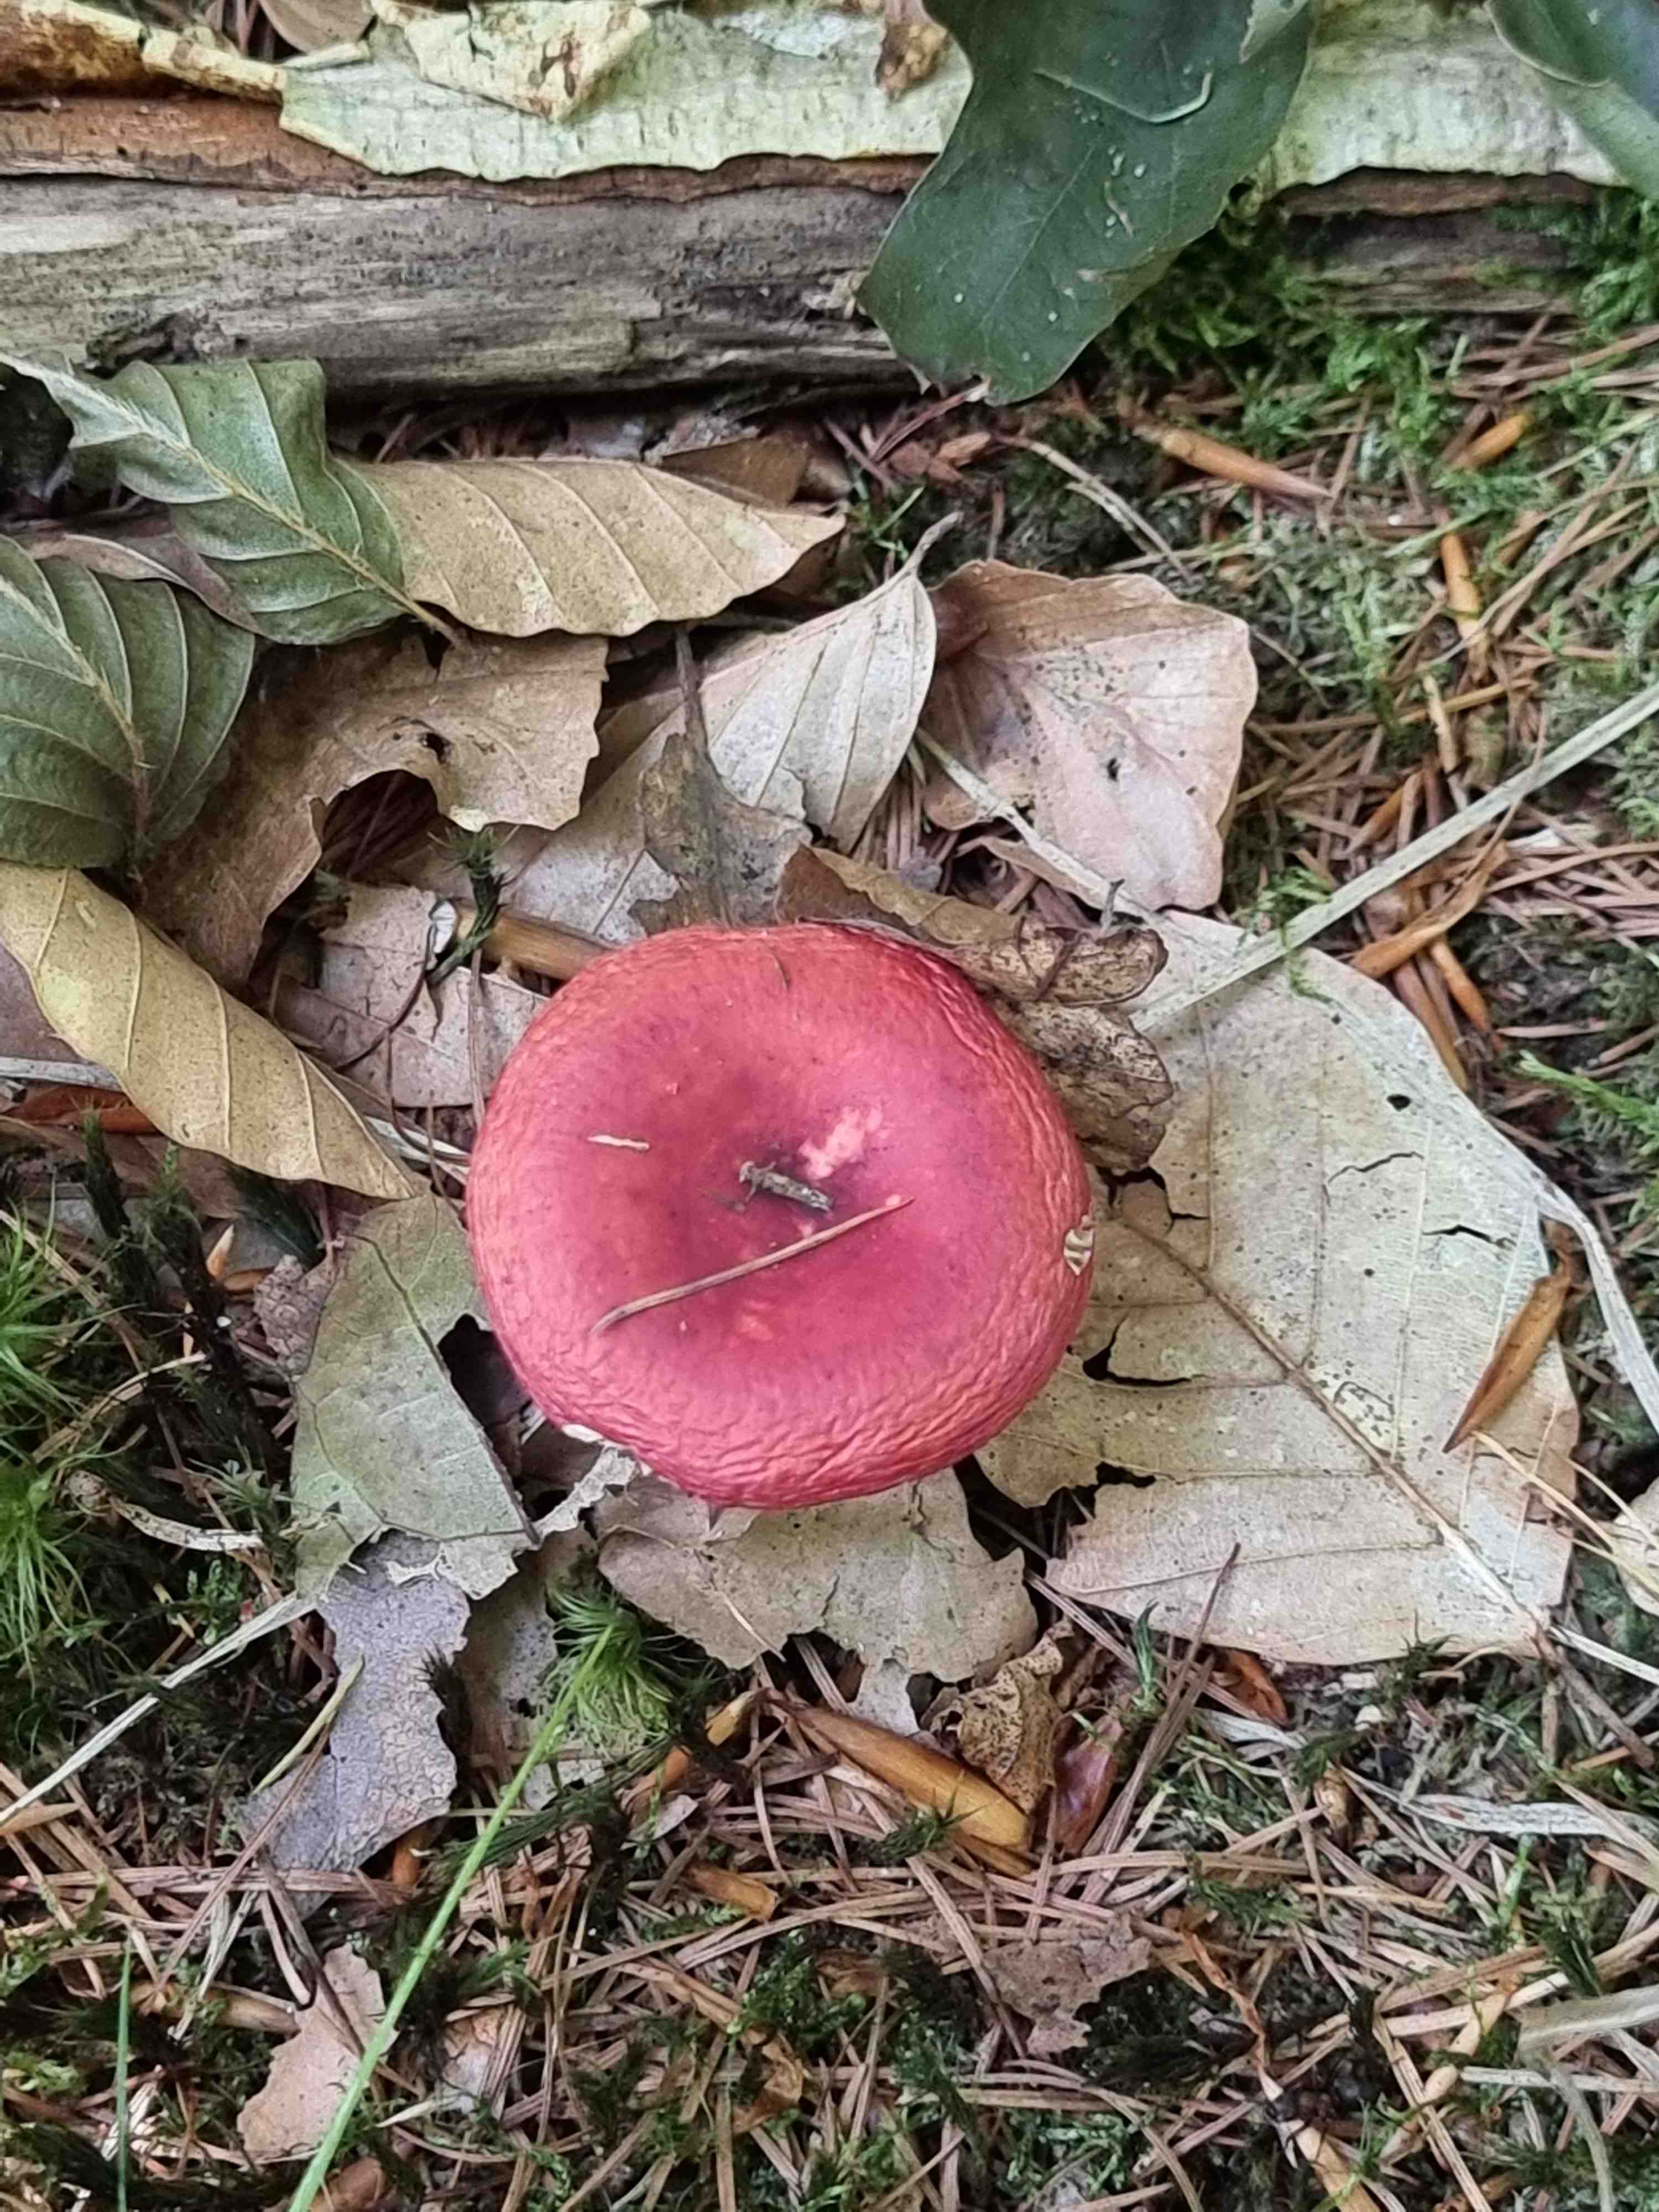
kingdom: Fungi
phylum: Basidiomycota
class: Agaricomycetes
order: Russulales
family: Russulaceae
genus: Russula
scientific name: Russula
